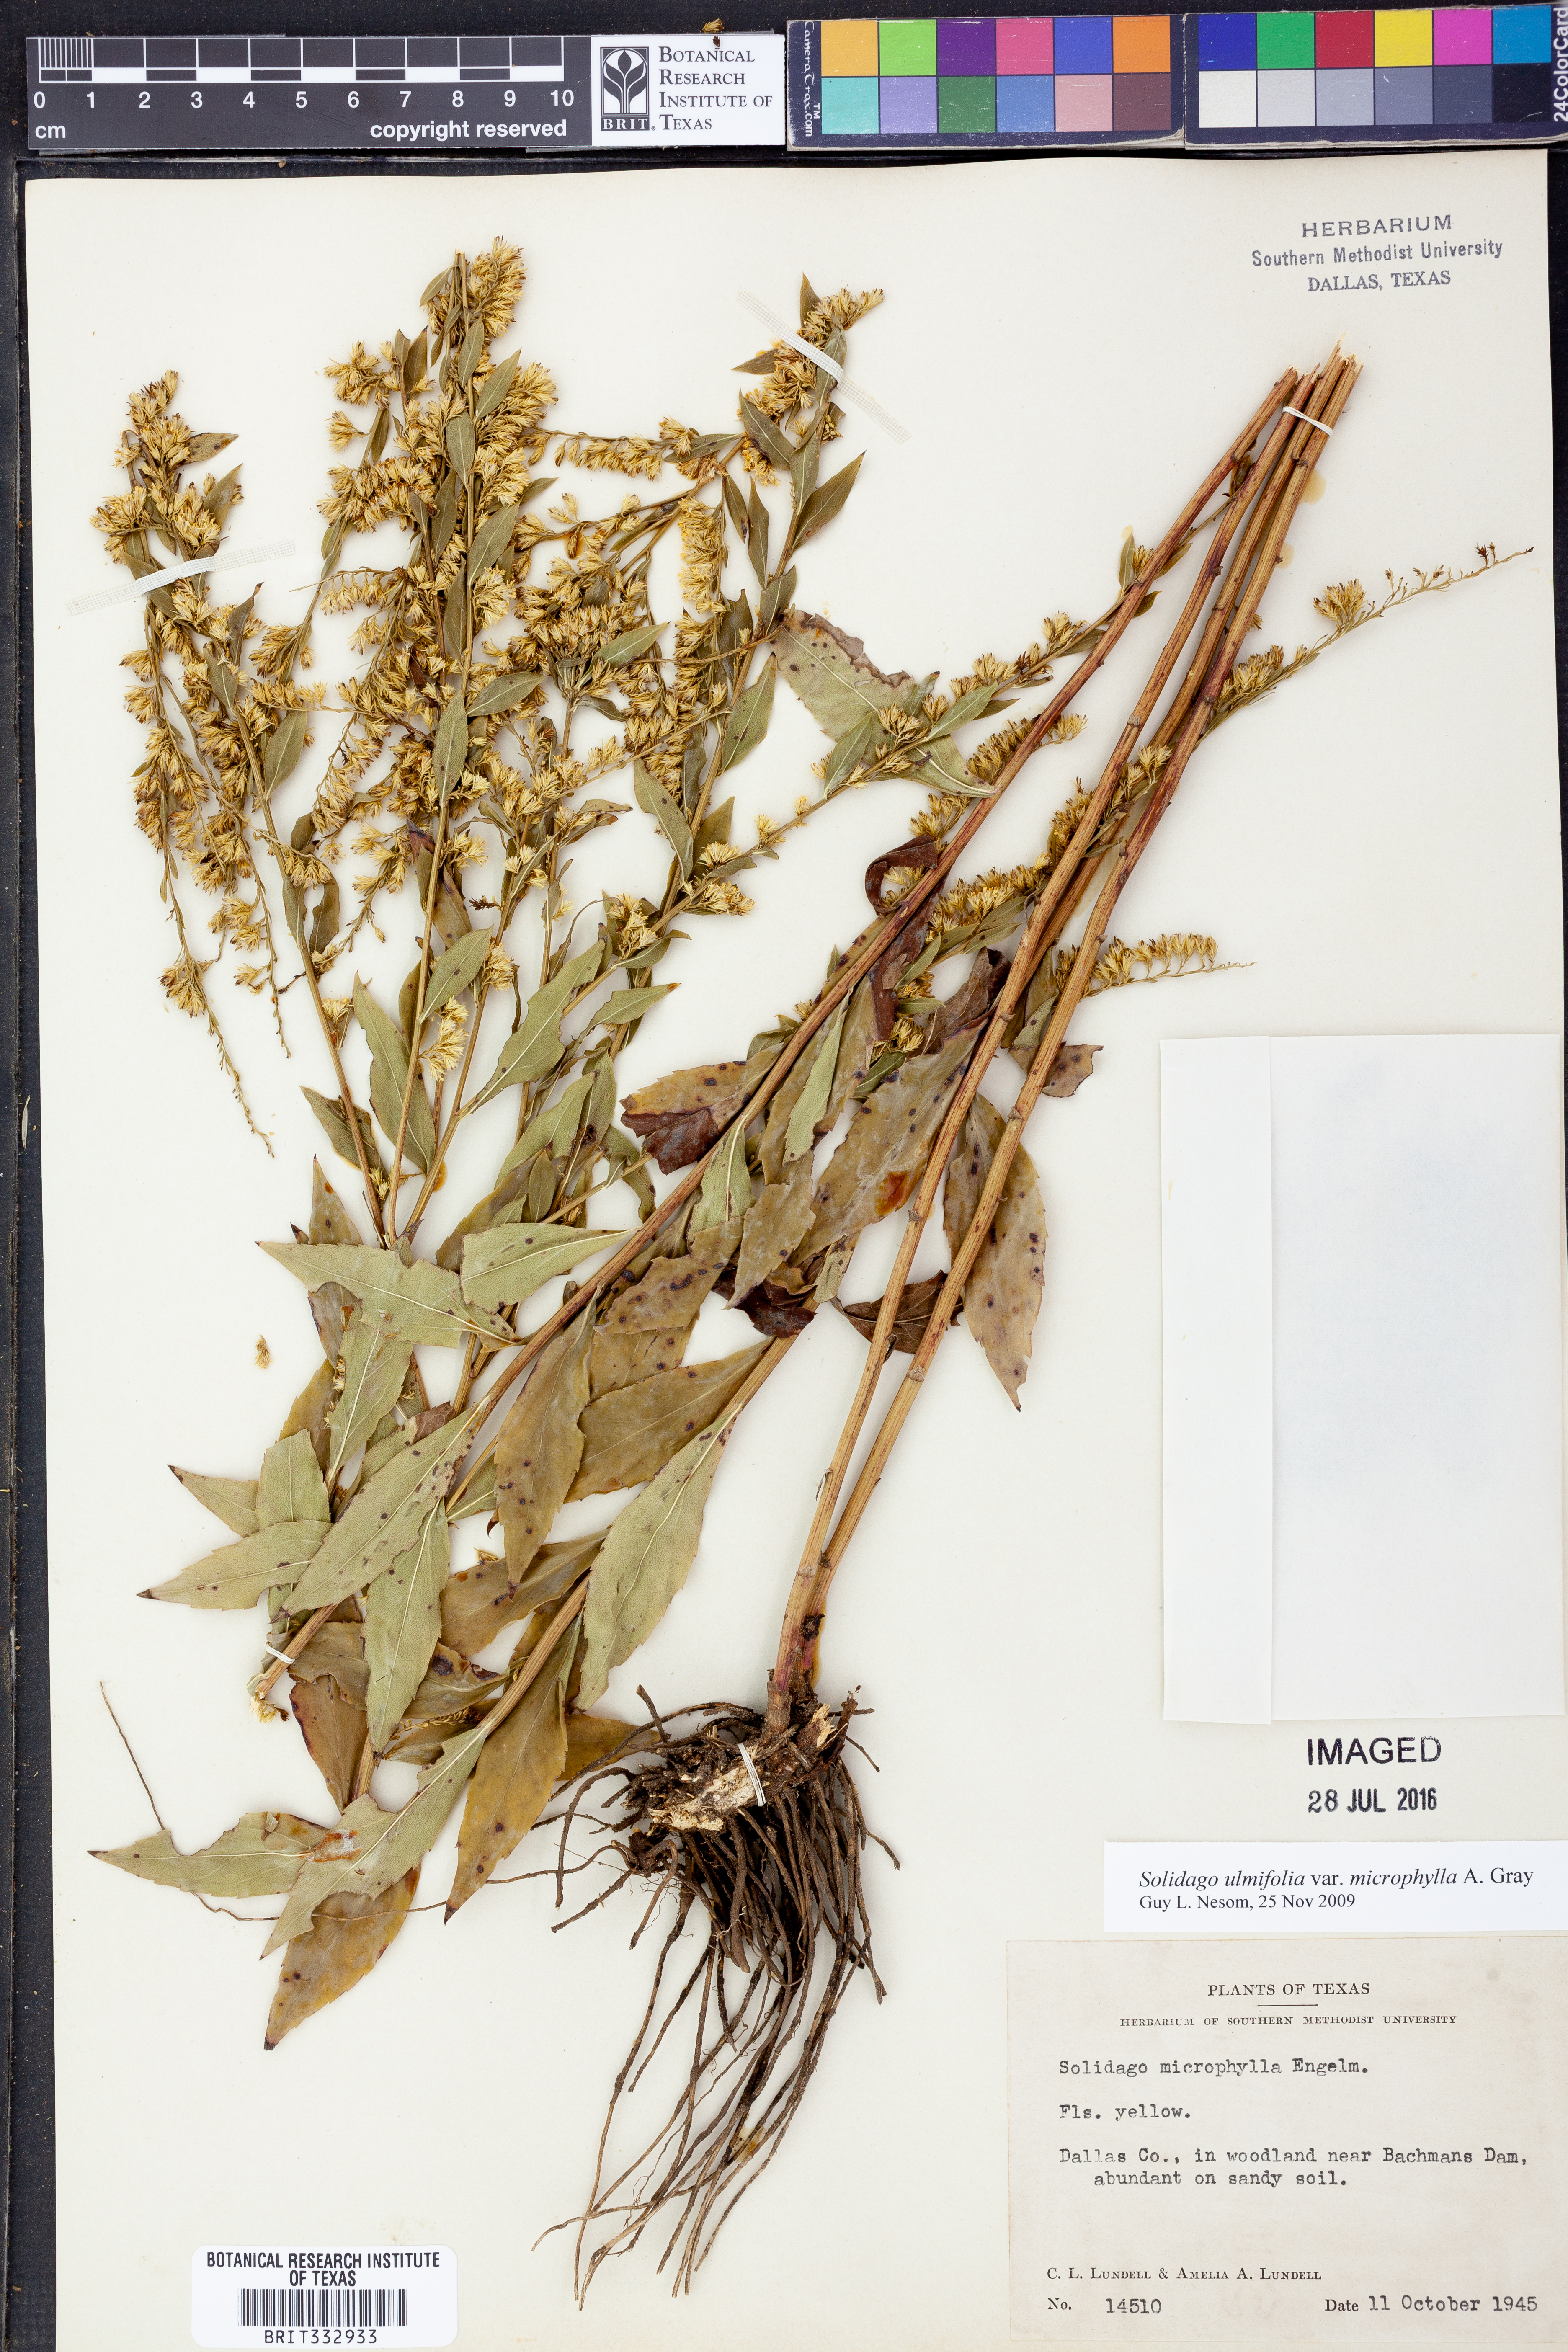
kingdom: Plantae
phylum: Tracheophyta
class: Magnoliopsida
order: Asterales
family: Asteraceae
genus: Solidago
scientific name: Solidago delicatula
